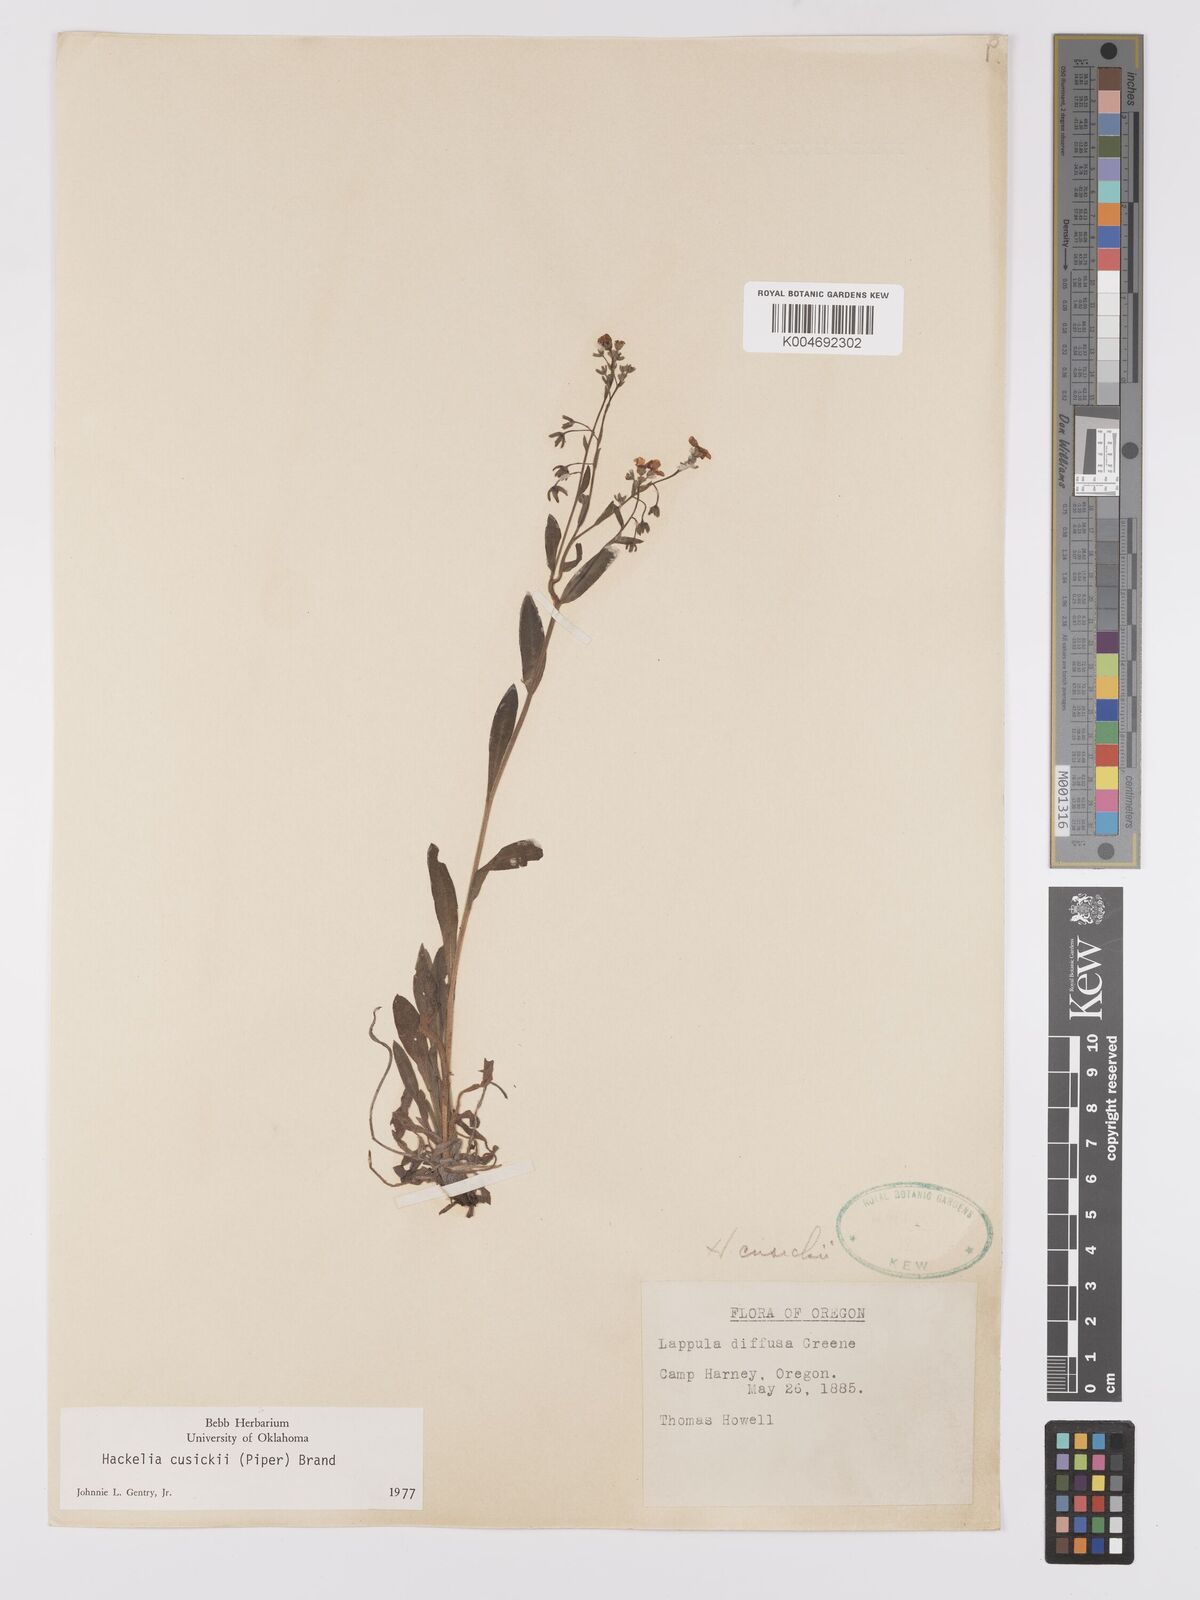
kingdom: Plantae
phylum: Tracheophyta
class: Magnoliopsida
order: Boraginales
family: Boraginaceae
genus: Hackelia
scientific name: Hackelia cusickii
